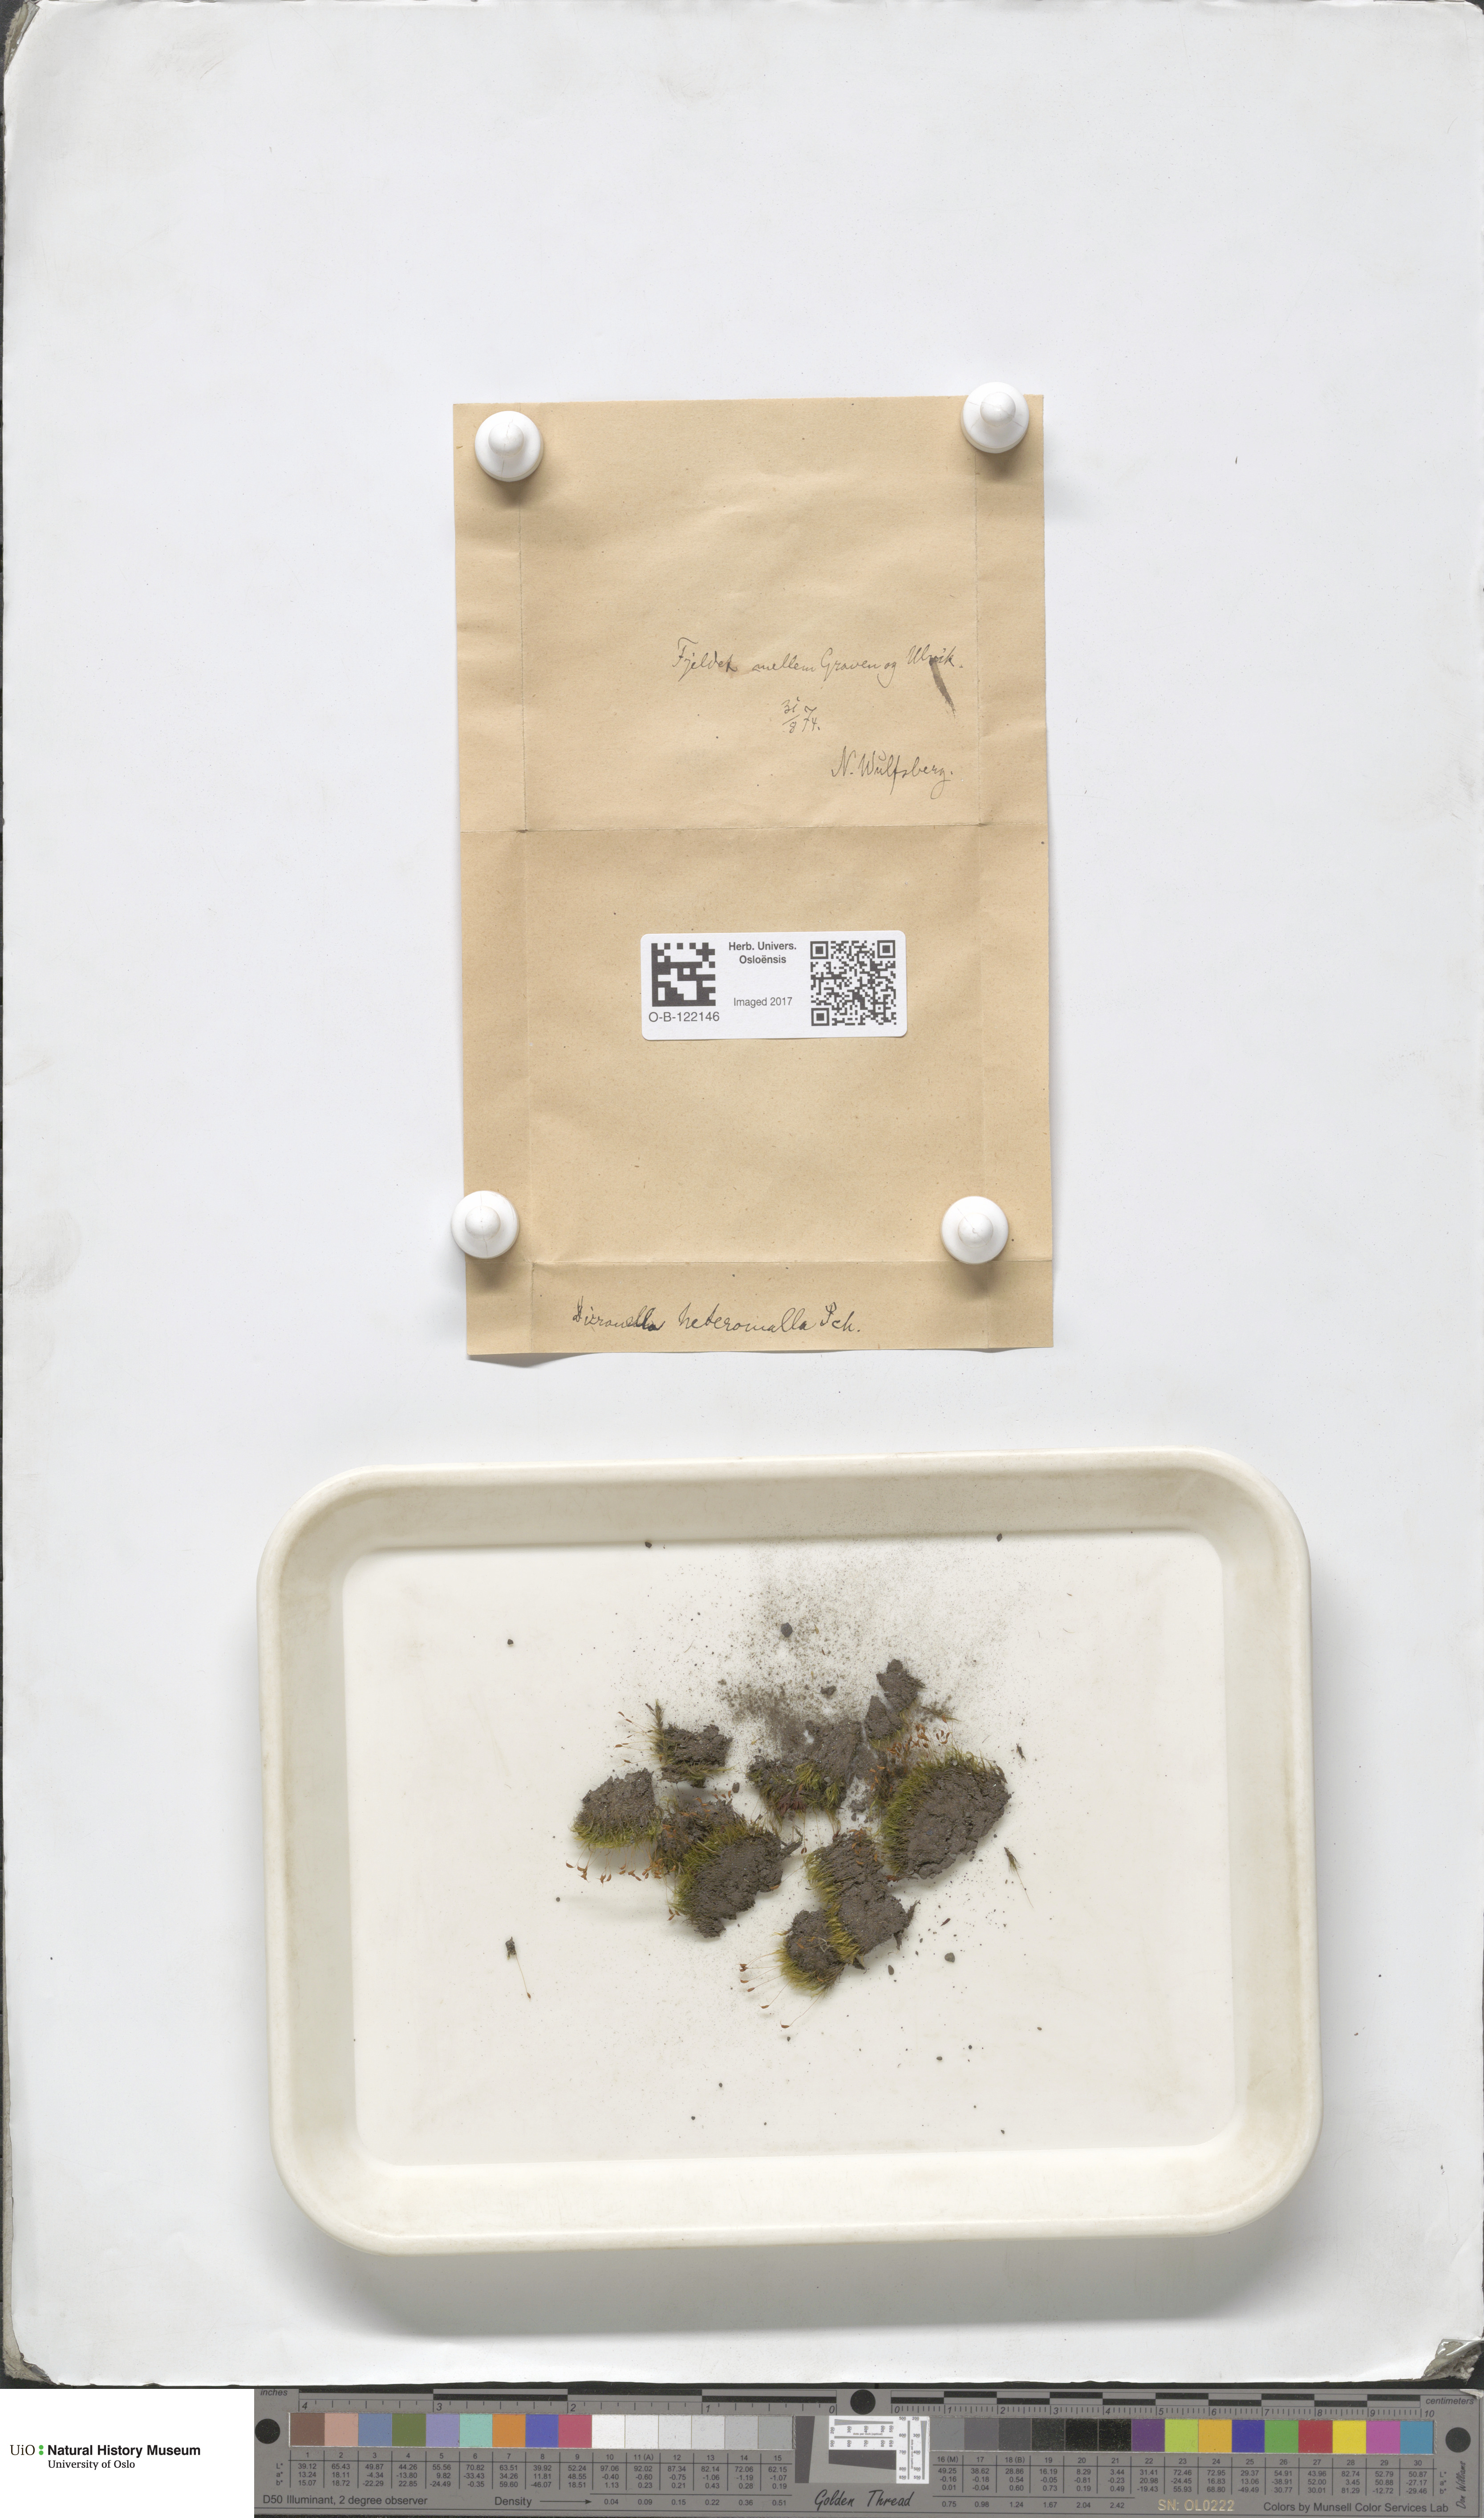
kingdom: Plantae
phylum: Bryophyta
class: Bryopsida
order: Dicranales
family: Dicranellaceae
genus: Dicranella
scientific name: Dicranella heteromalla
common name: Silky forklet moss
